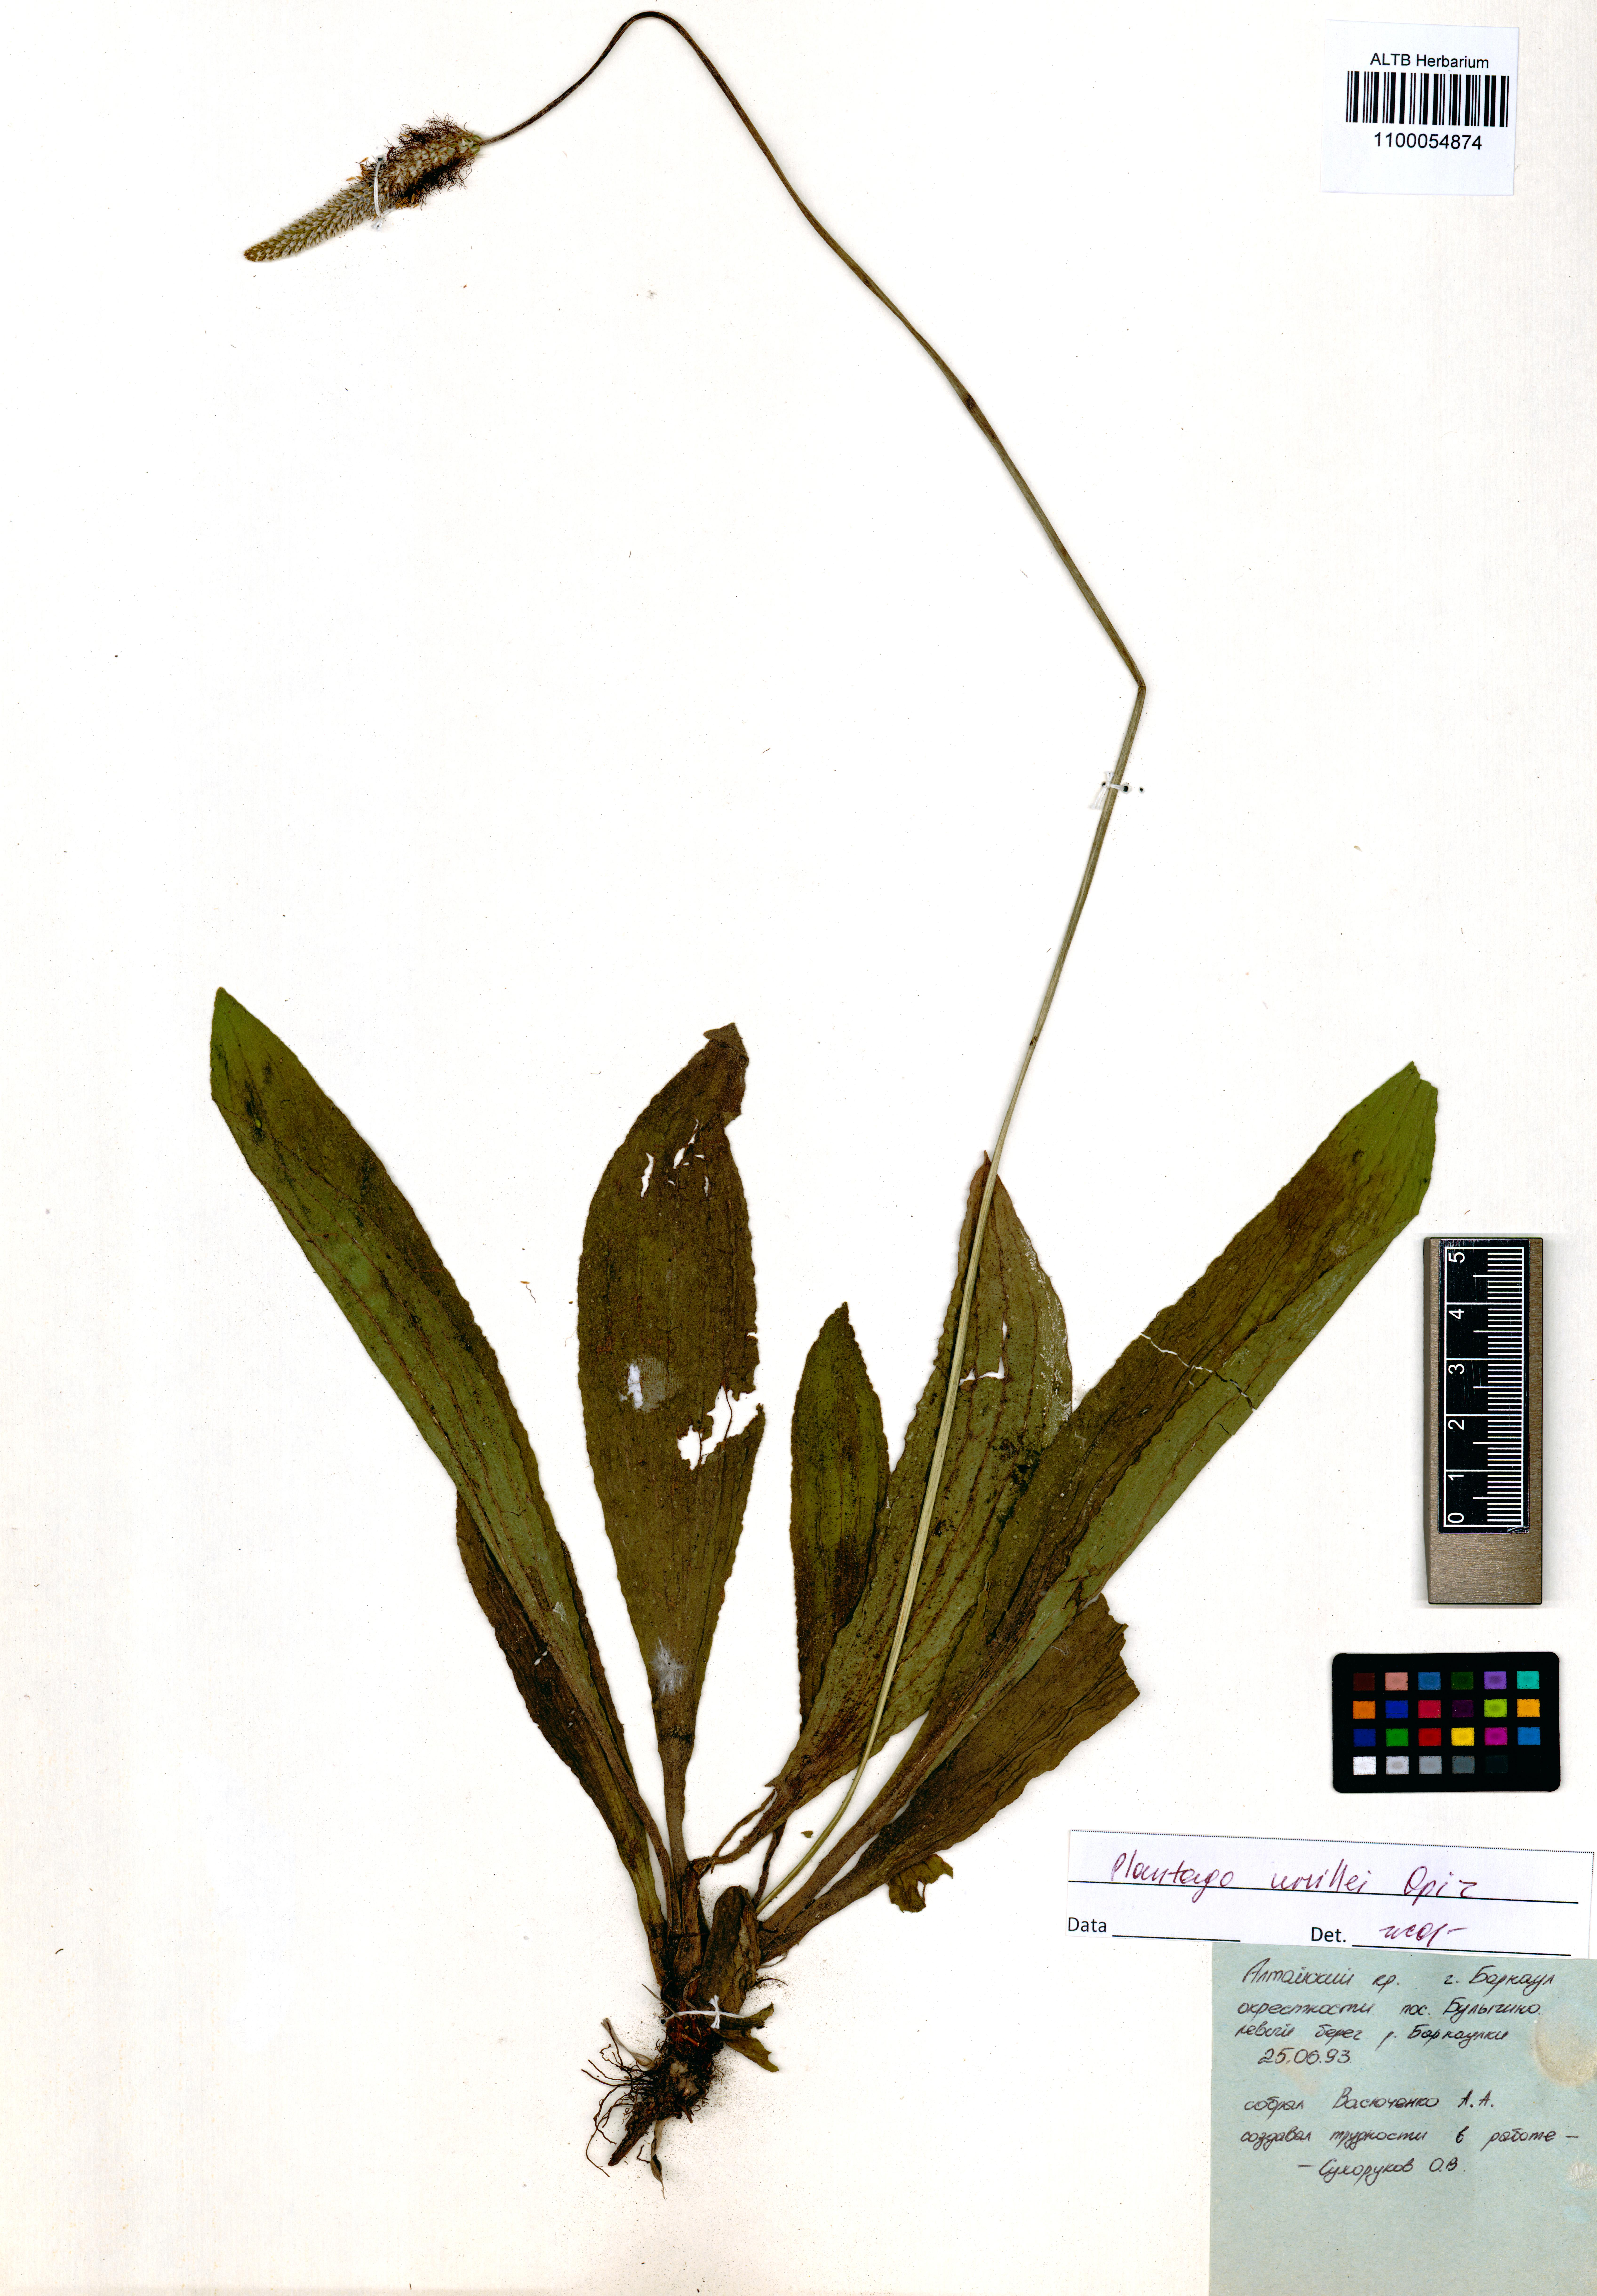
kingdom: Plantae
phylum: Tracheophyta
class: Magnoliopsida
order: Lamiales
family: Plantaginaceae
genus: Plantago
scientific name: Plantago urvillei
